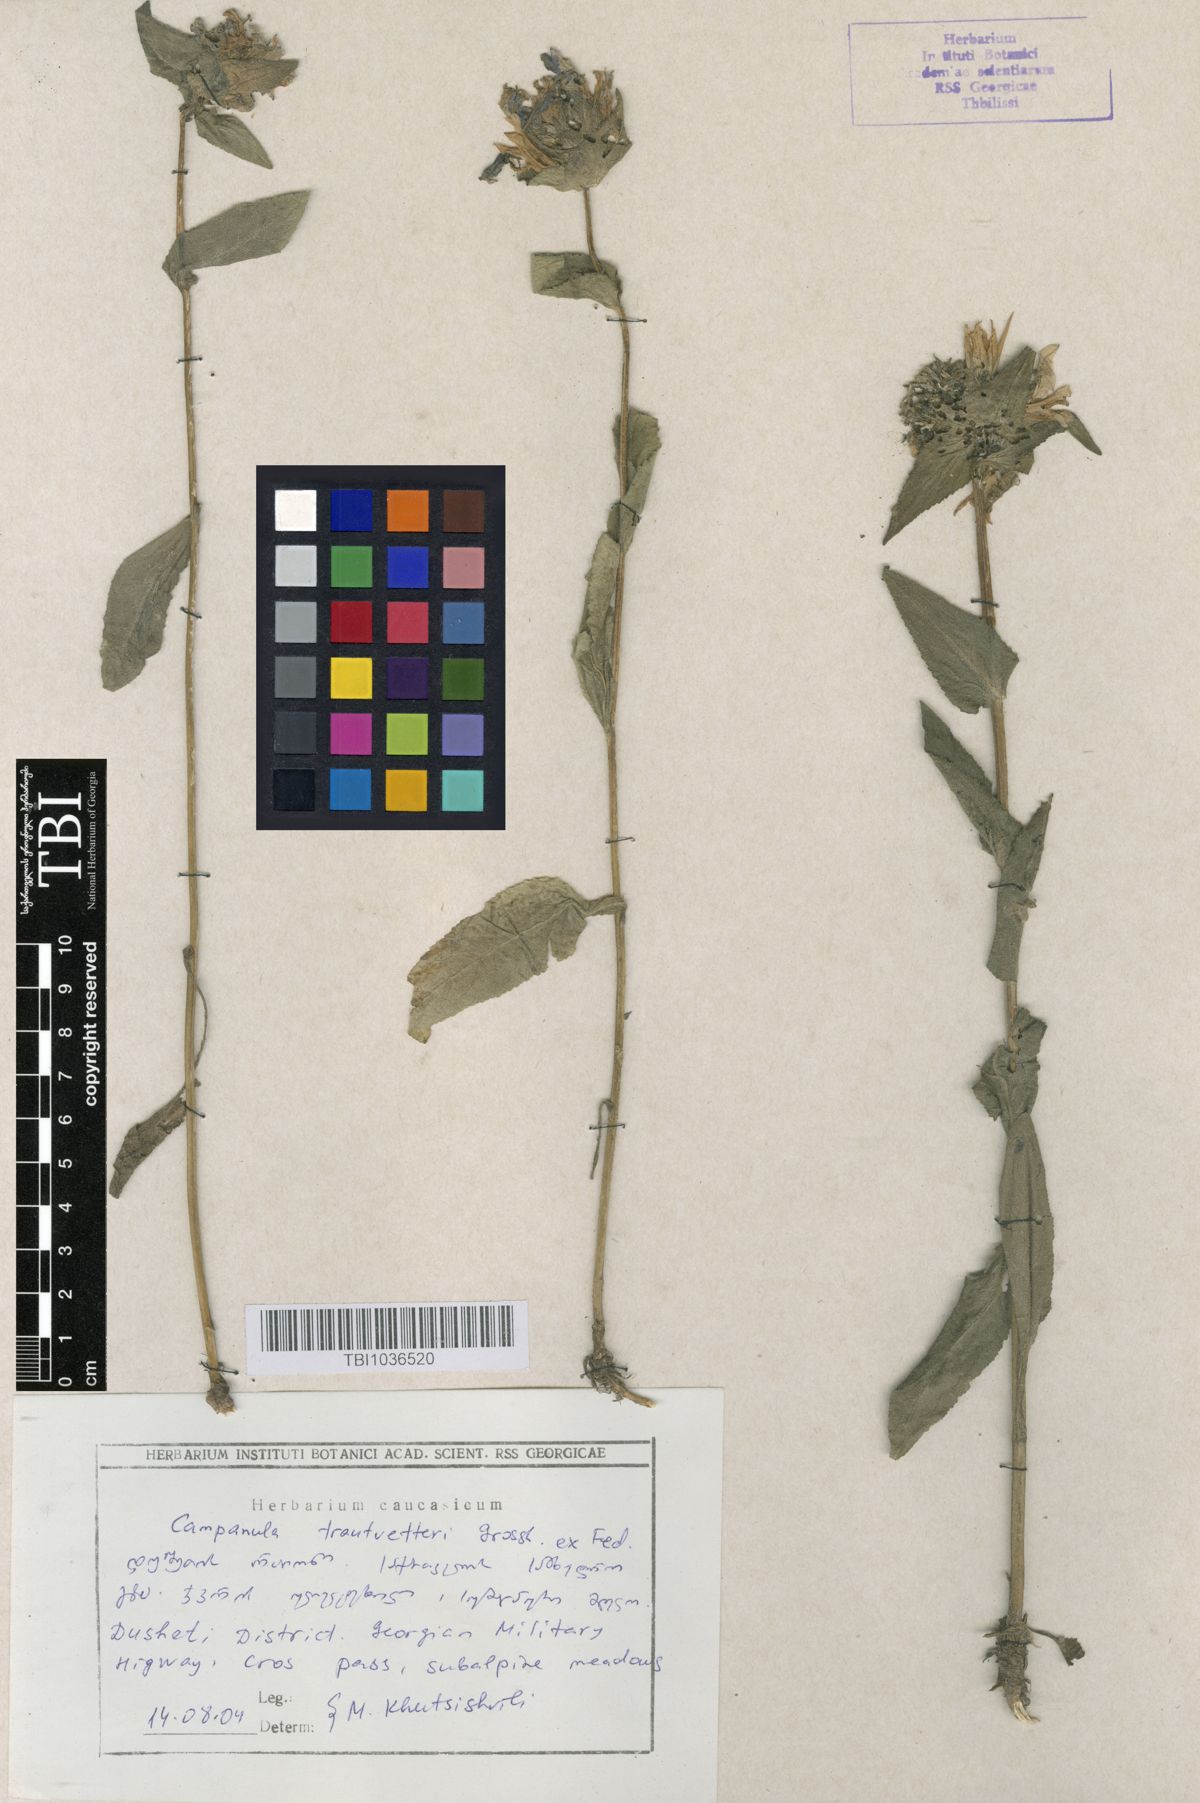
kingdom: Plantae
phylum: Tracheophyta
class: Magnoliopsida
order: Asterales
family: Campanulaceae
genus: Campanula
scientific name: Campanula glomerata
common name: Clustered bellflower
